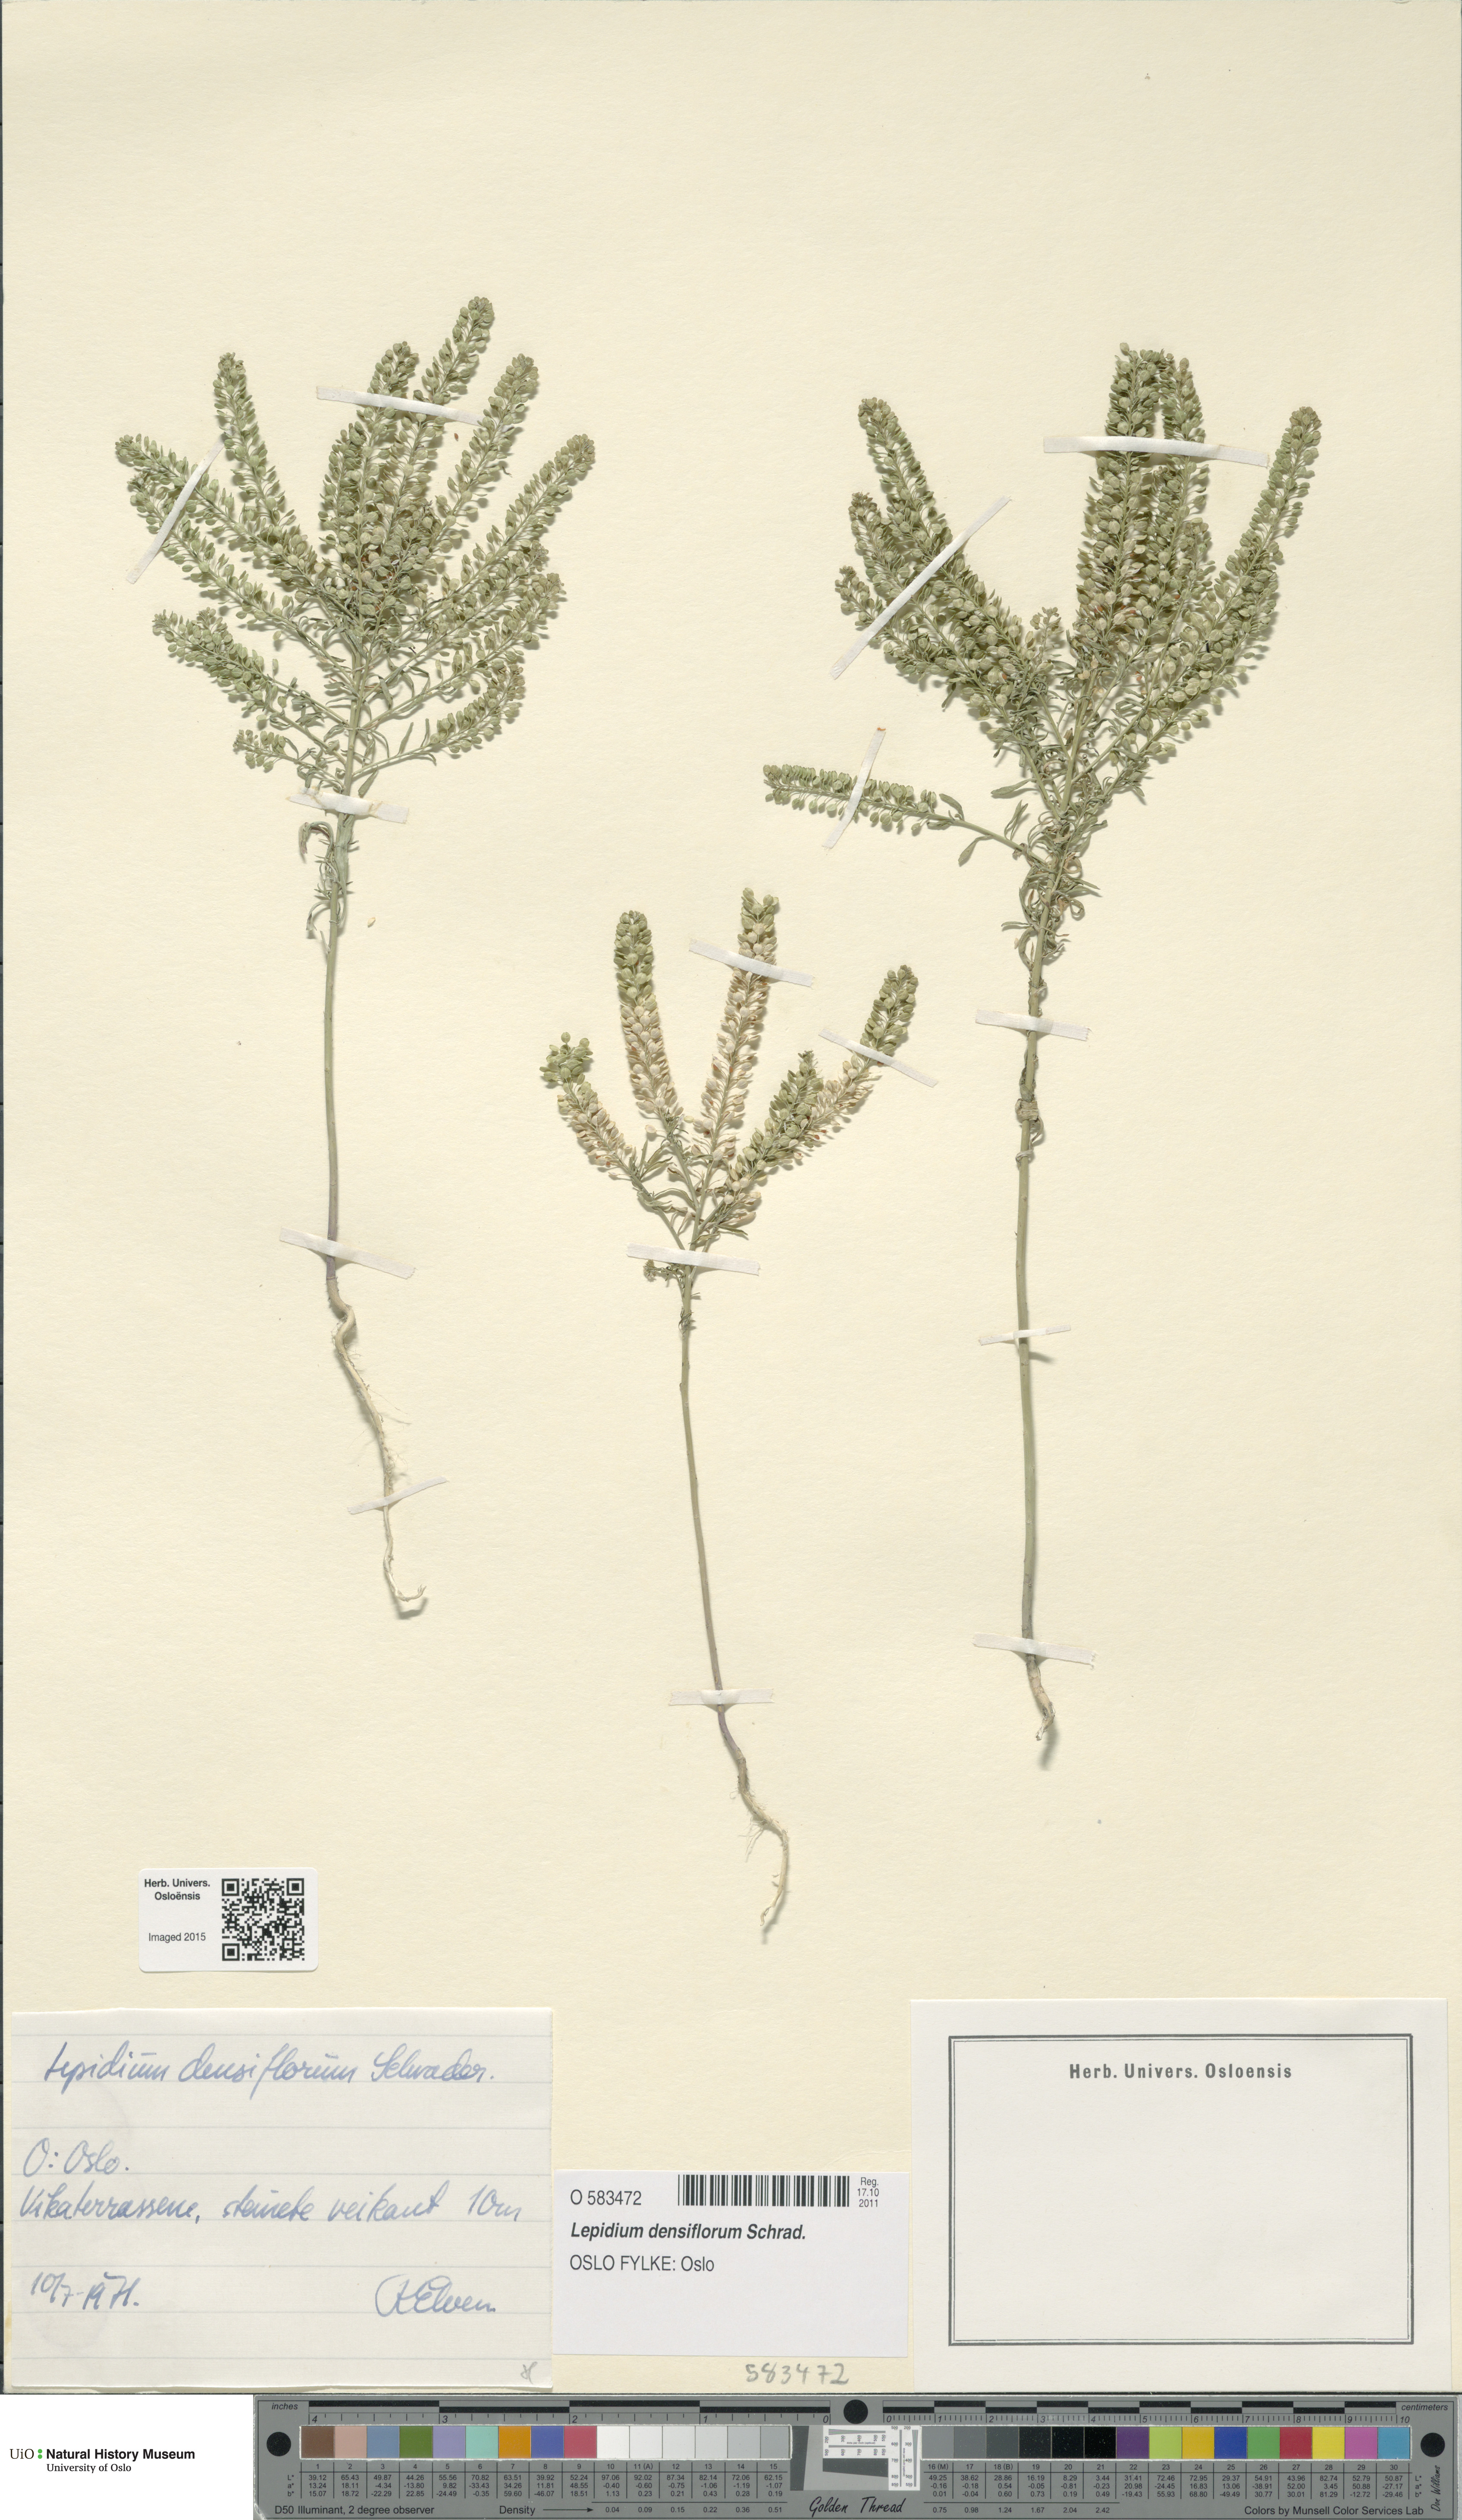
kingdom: Plantae
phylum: Tracheophyta
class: Magnoliopsida
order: Brassicales
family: Brassicaceae
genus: Lepidium
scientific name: Lepidium densiflorum
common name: Miner's pepperwort
